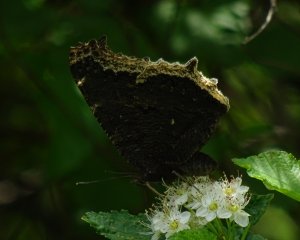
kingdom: Animalia
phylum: Arthropoda
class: Insecta
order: Lepidoptera
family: Nymphalidae
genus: Nymphalis
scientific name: Nymphalis antiopa
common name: Mourning Cloak
